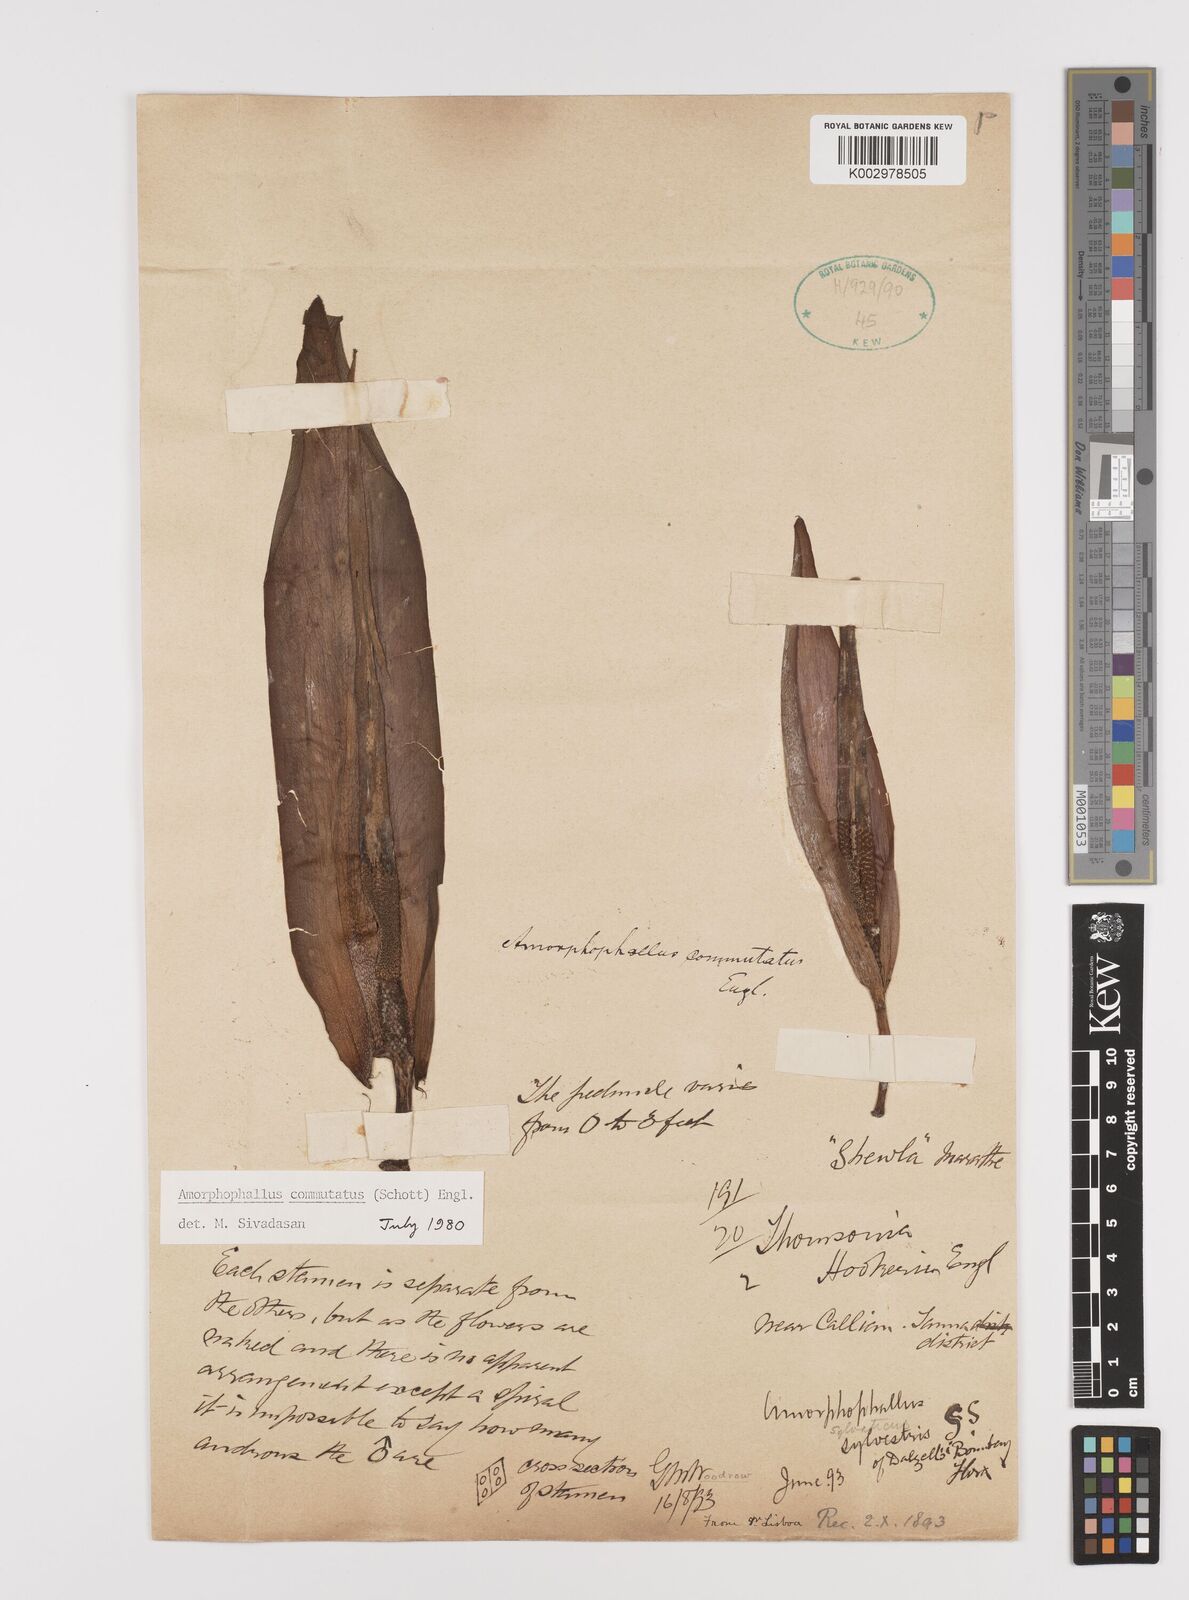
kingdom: Plantae
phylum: Tracheophyta
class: Liliopsida
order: Alismatales
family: Araceae
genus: Amorphophallus
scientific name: Amorphophallus commutatus
